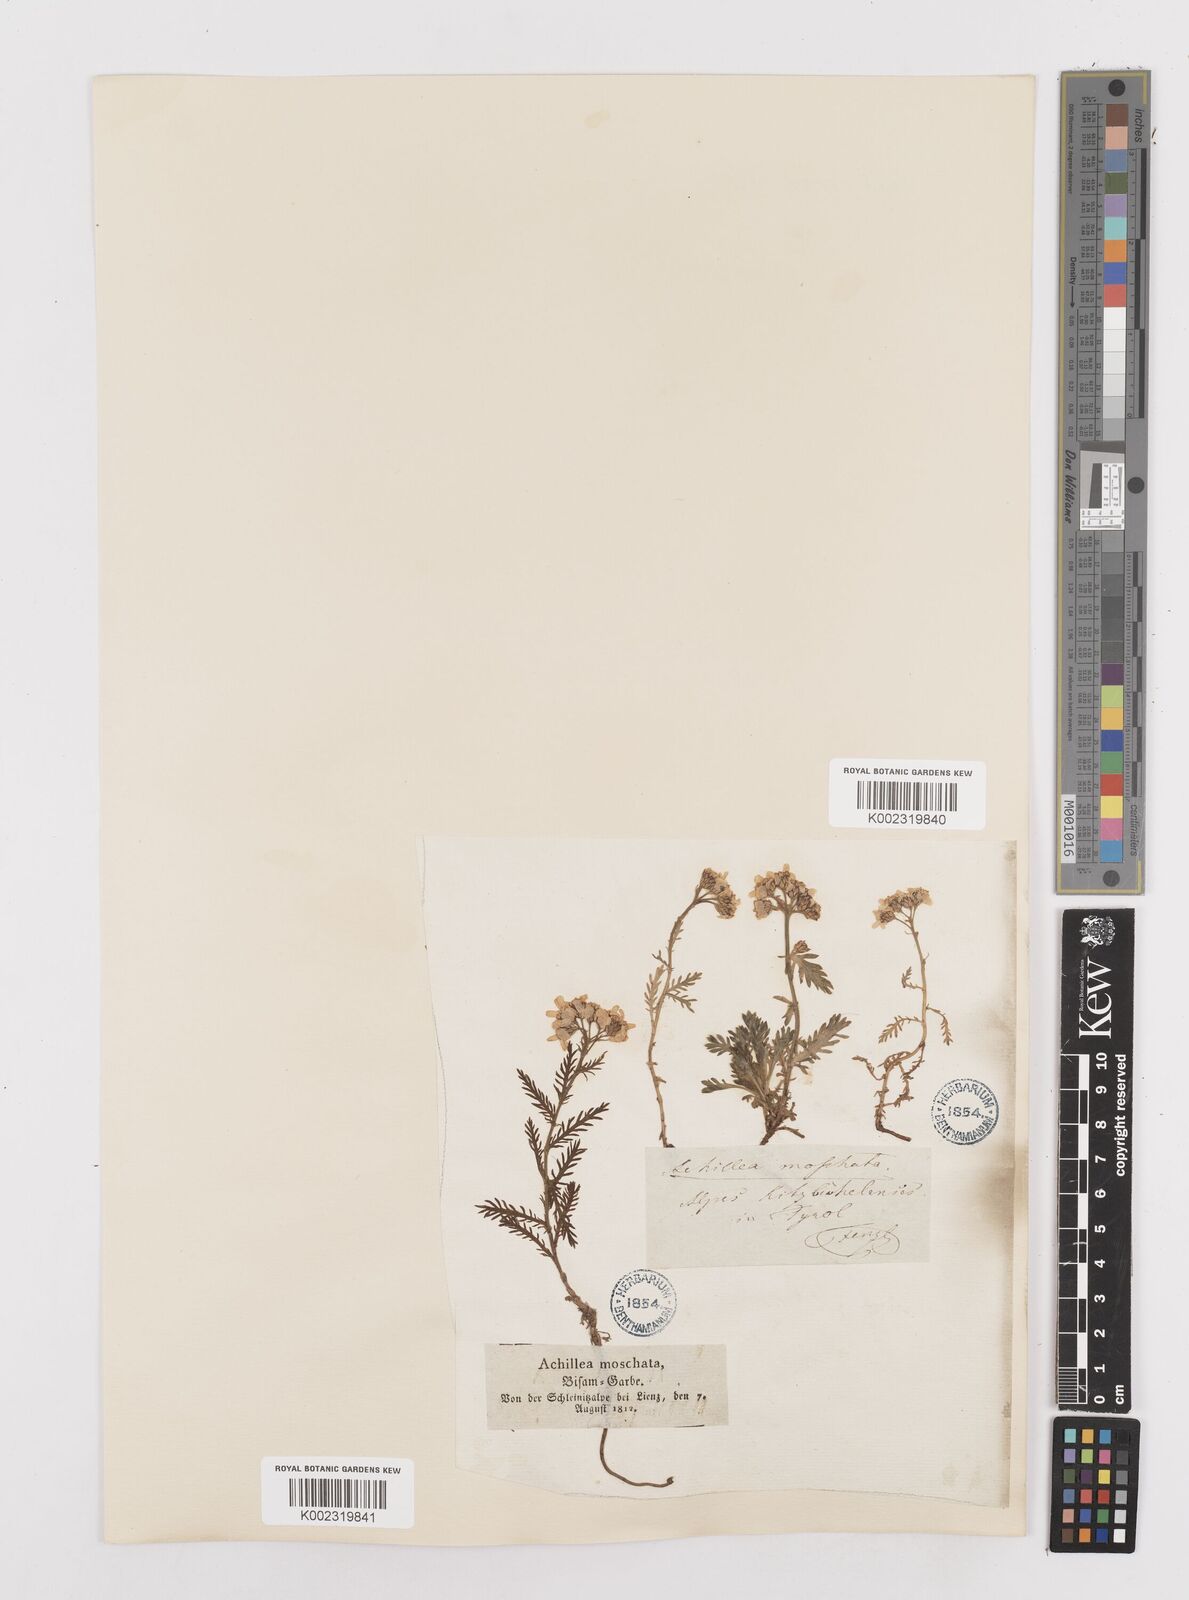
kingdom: Plantae
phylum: Tracheophyta
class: Magnoliopsida
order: Asterales
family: Asteraceae
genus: Achillea
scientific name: Achillea erba-rotta
